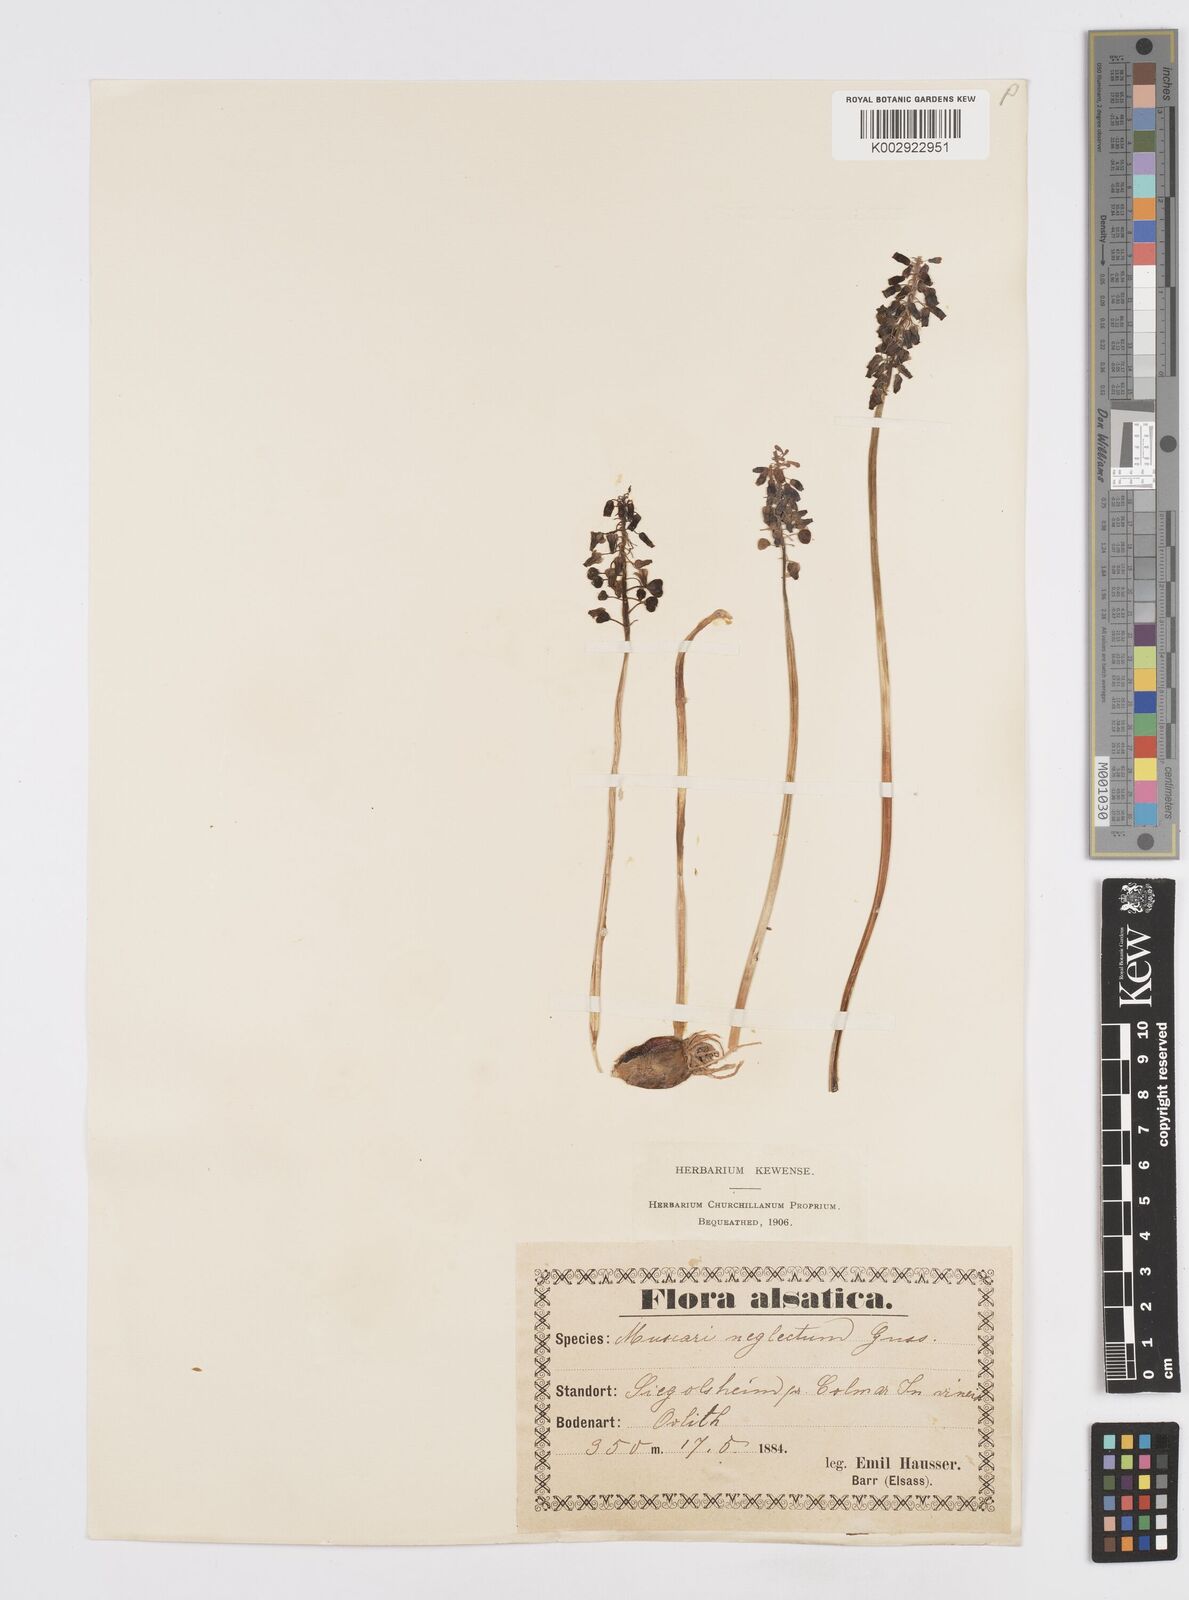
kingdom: Plantae
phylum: Tracheophyta
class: Liliopsida
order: Asparagales
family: Asparagaceae
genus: Muscari
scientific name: Muscari neglectum
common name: Grape-hyacinth
